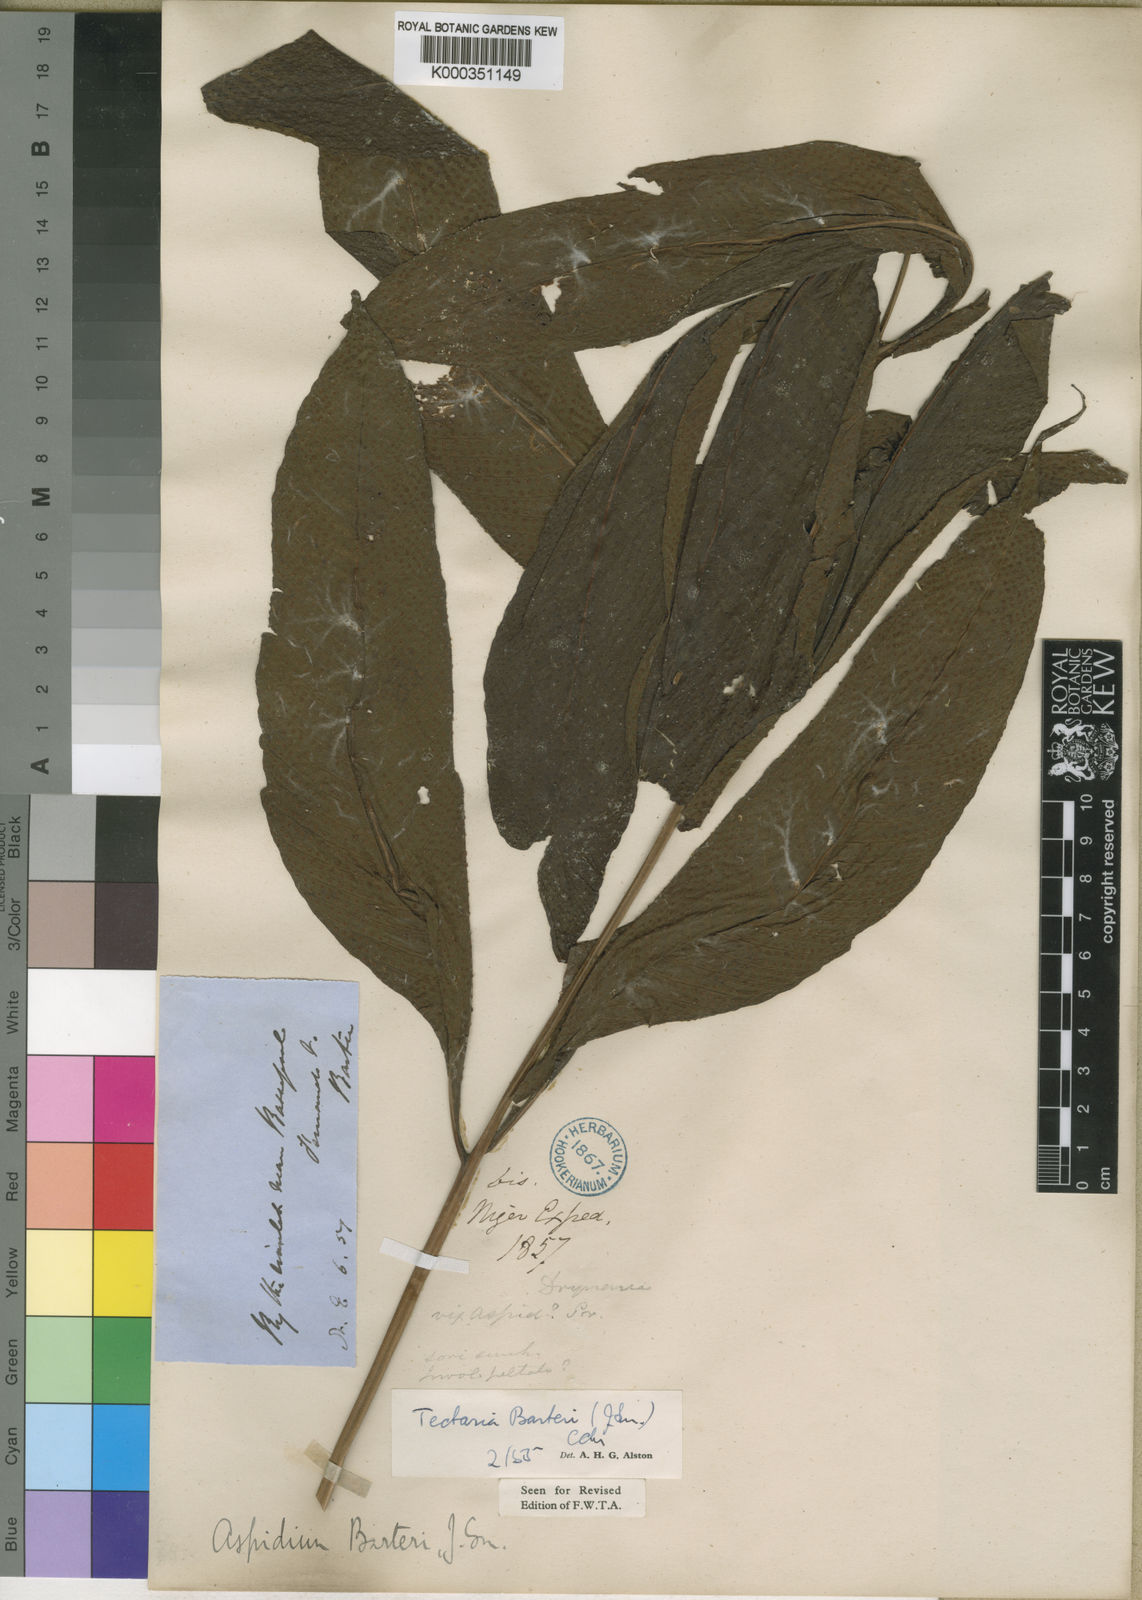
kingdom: Plantae
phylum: Tracheophyta
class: Polypodiopsida
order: Polypodiales
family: Tectariaceae
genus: Tectaria
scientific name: Tectaria barteri
